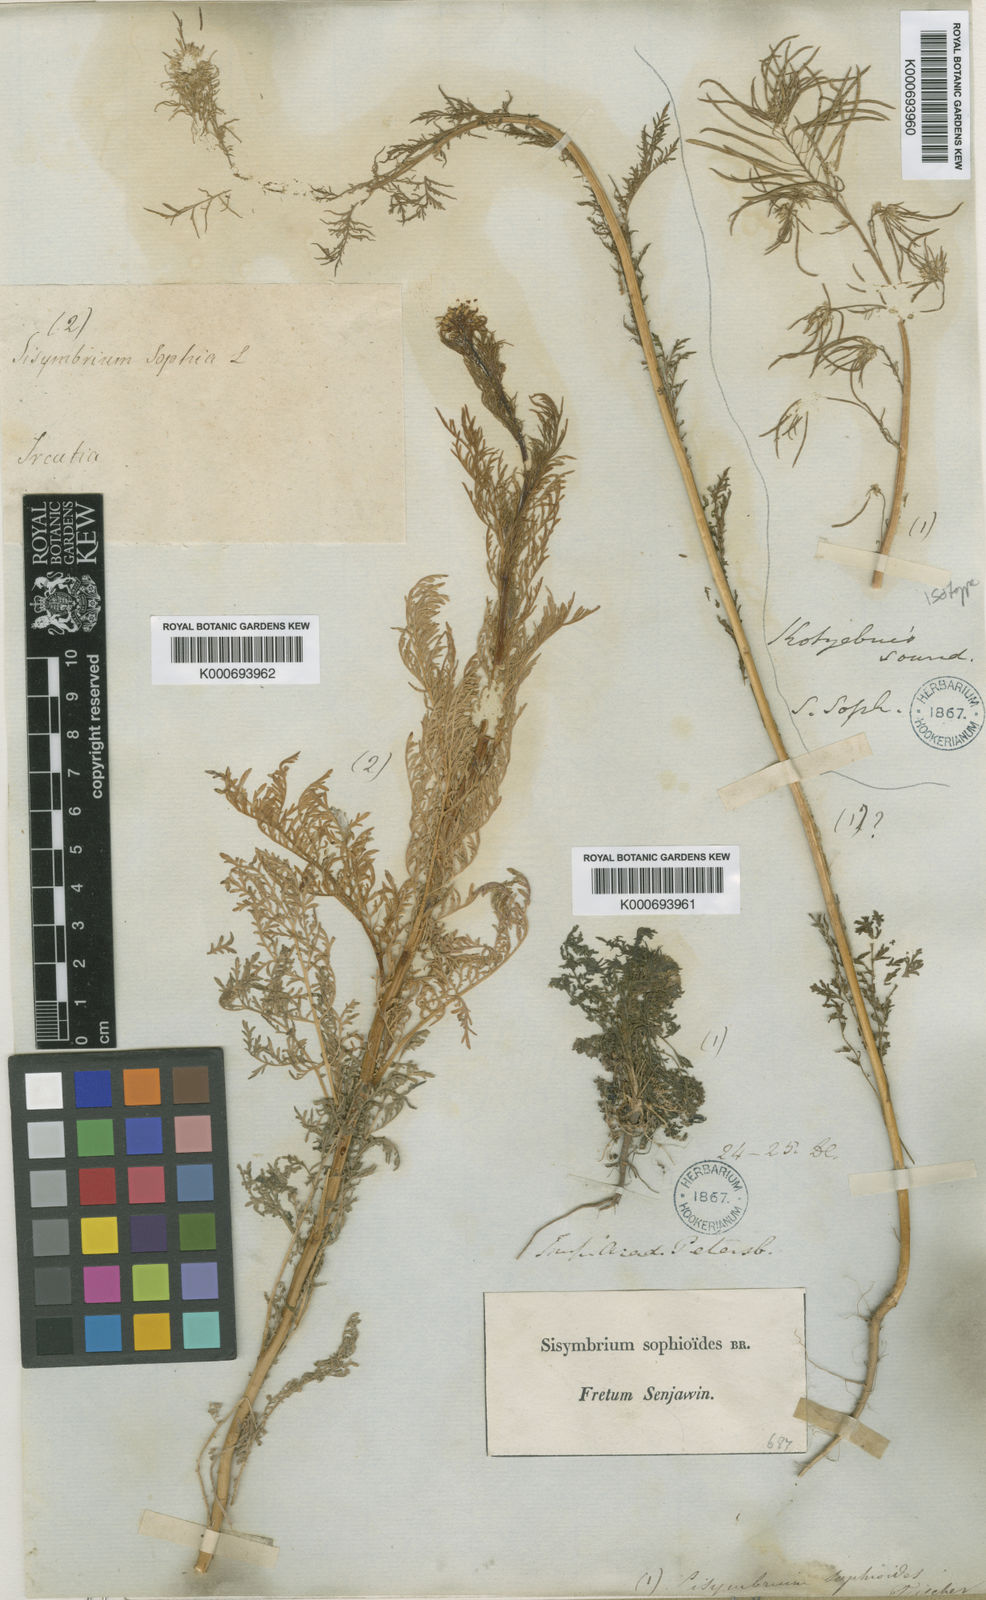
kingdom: Plantae
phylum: Tracheophyta
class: Magnoliopsida
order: Brassicales
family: Brassicaceae
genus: Descurainia
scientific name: Descurainia sophia
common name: Flixweed
